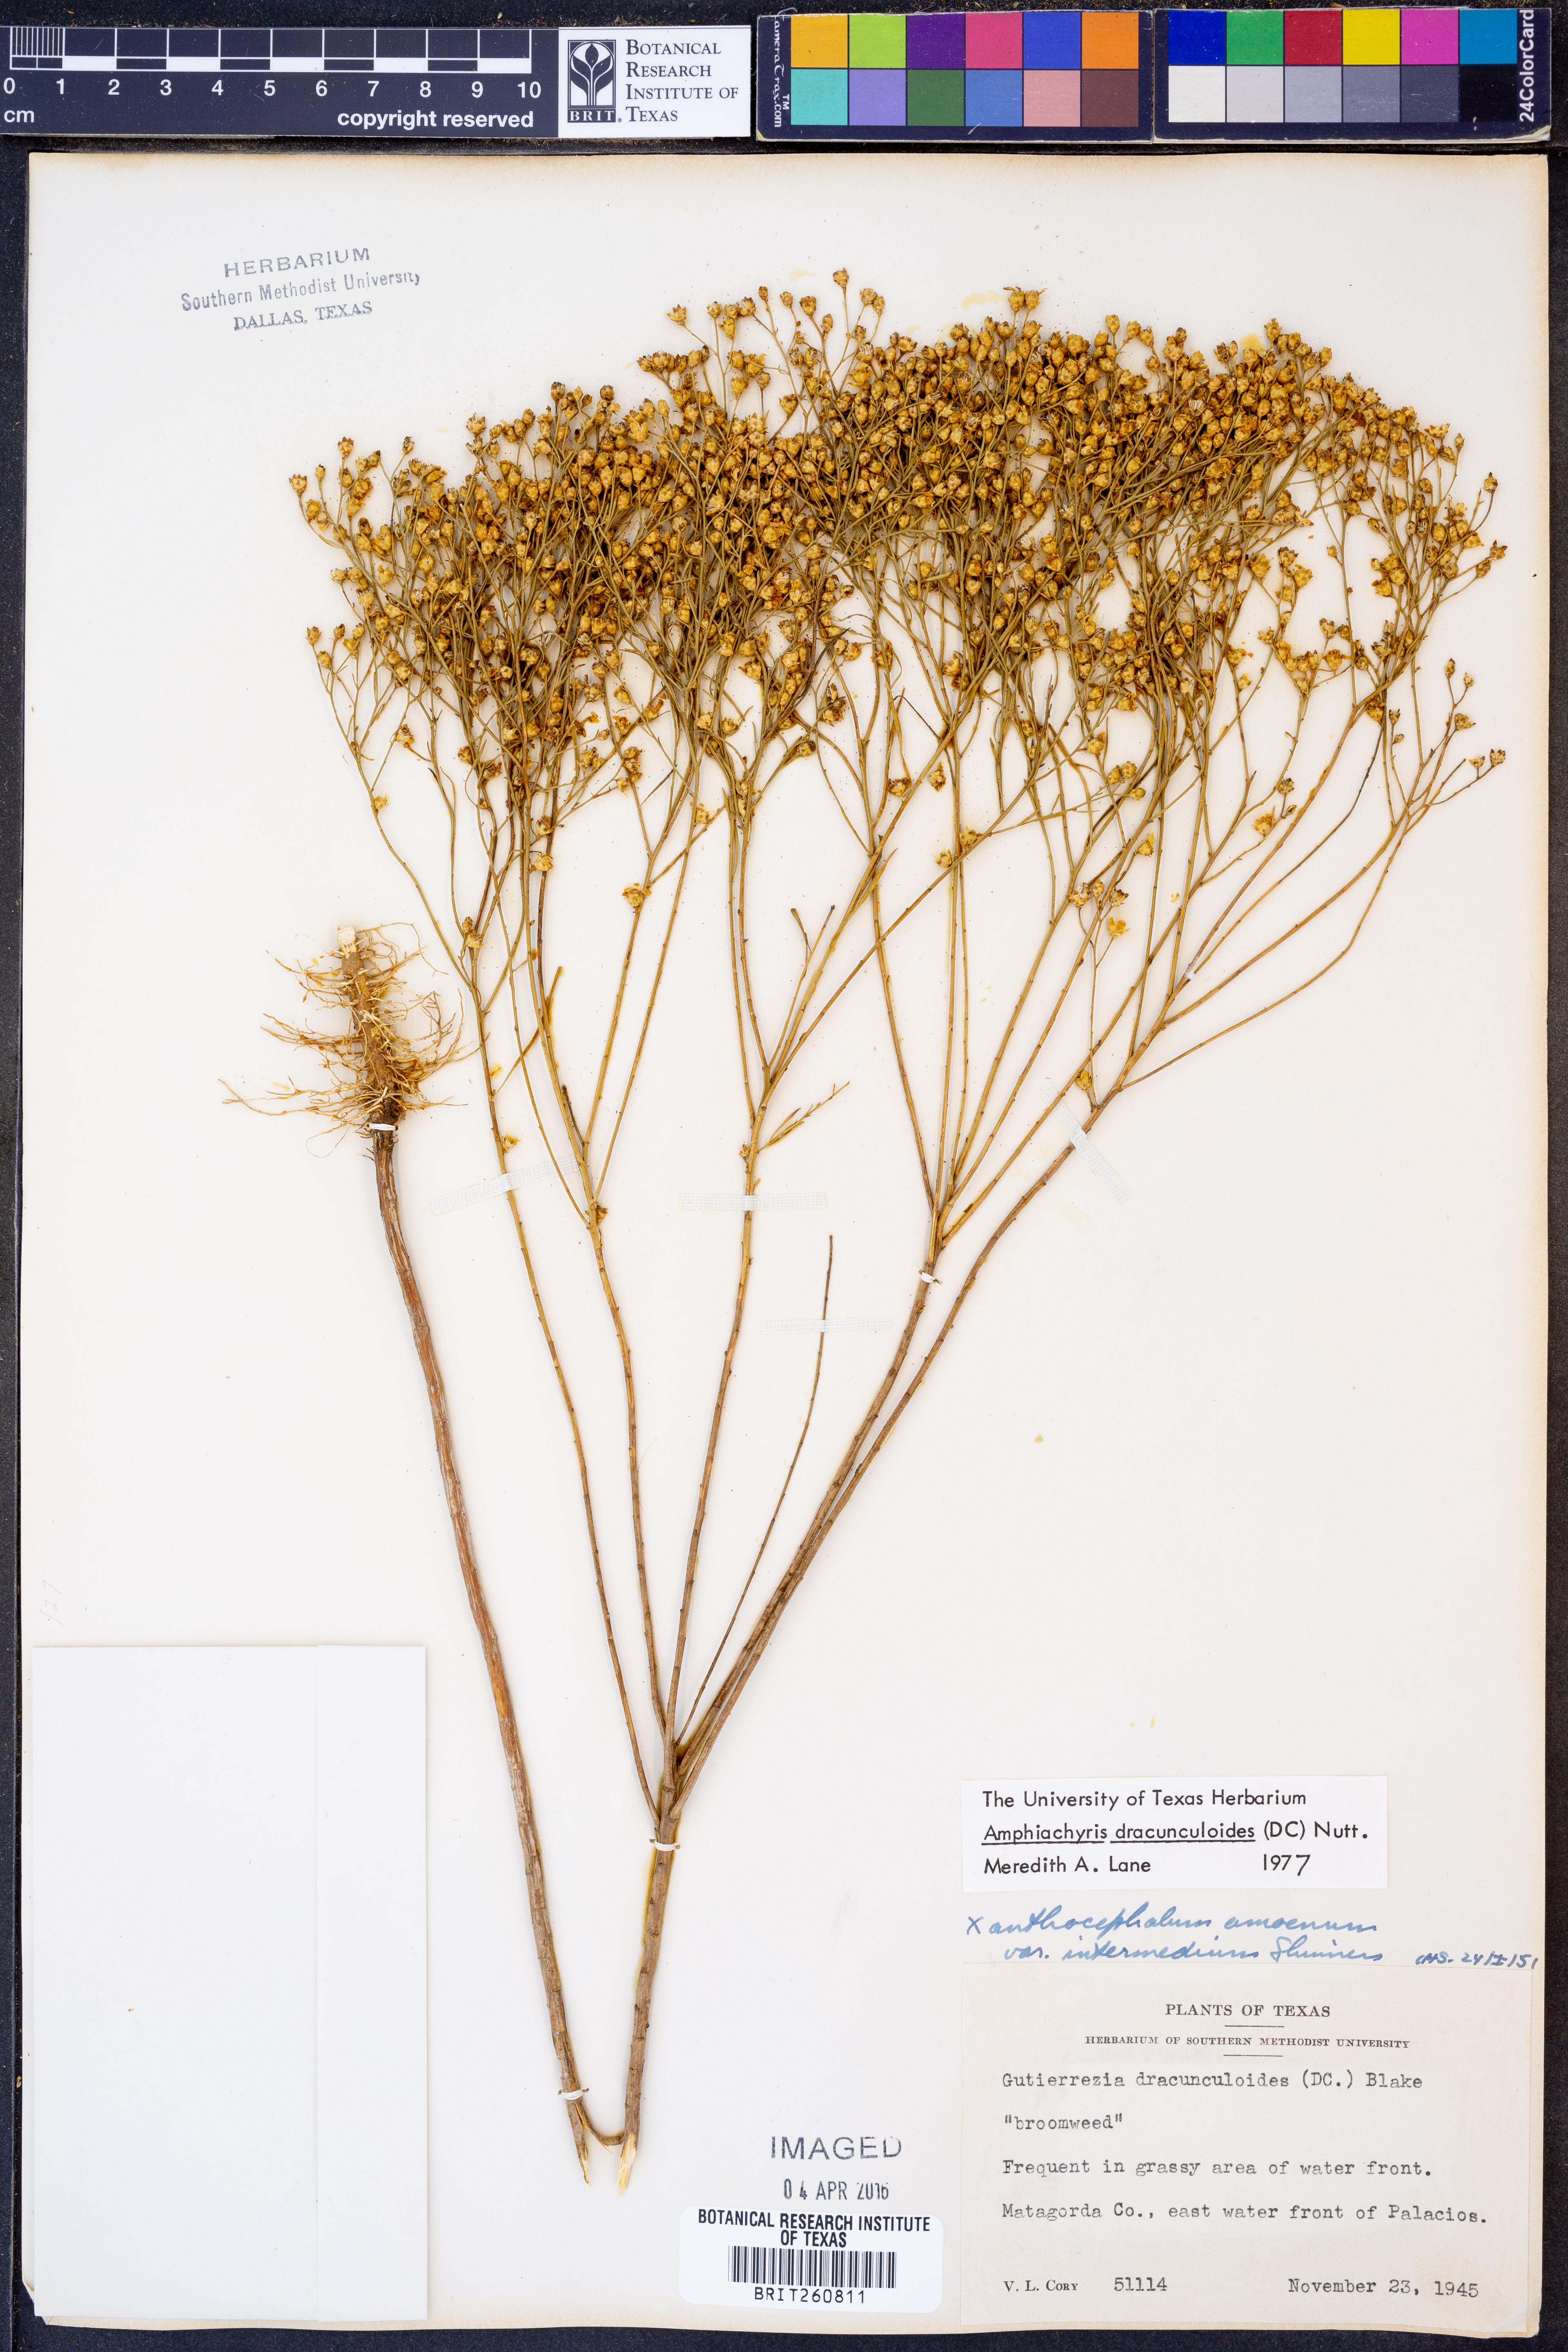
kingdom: Plantae
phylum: Tracheophyta
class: Magnoliopsida
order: Asterales
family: Asteraceae
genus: Amphiachyris
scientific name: Amphiachyris dracunculoides
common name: Broomweed
